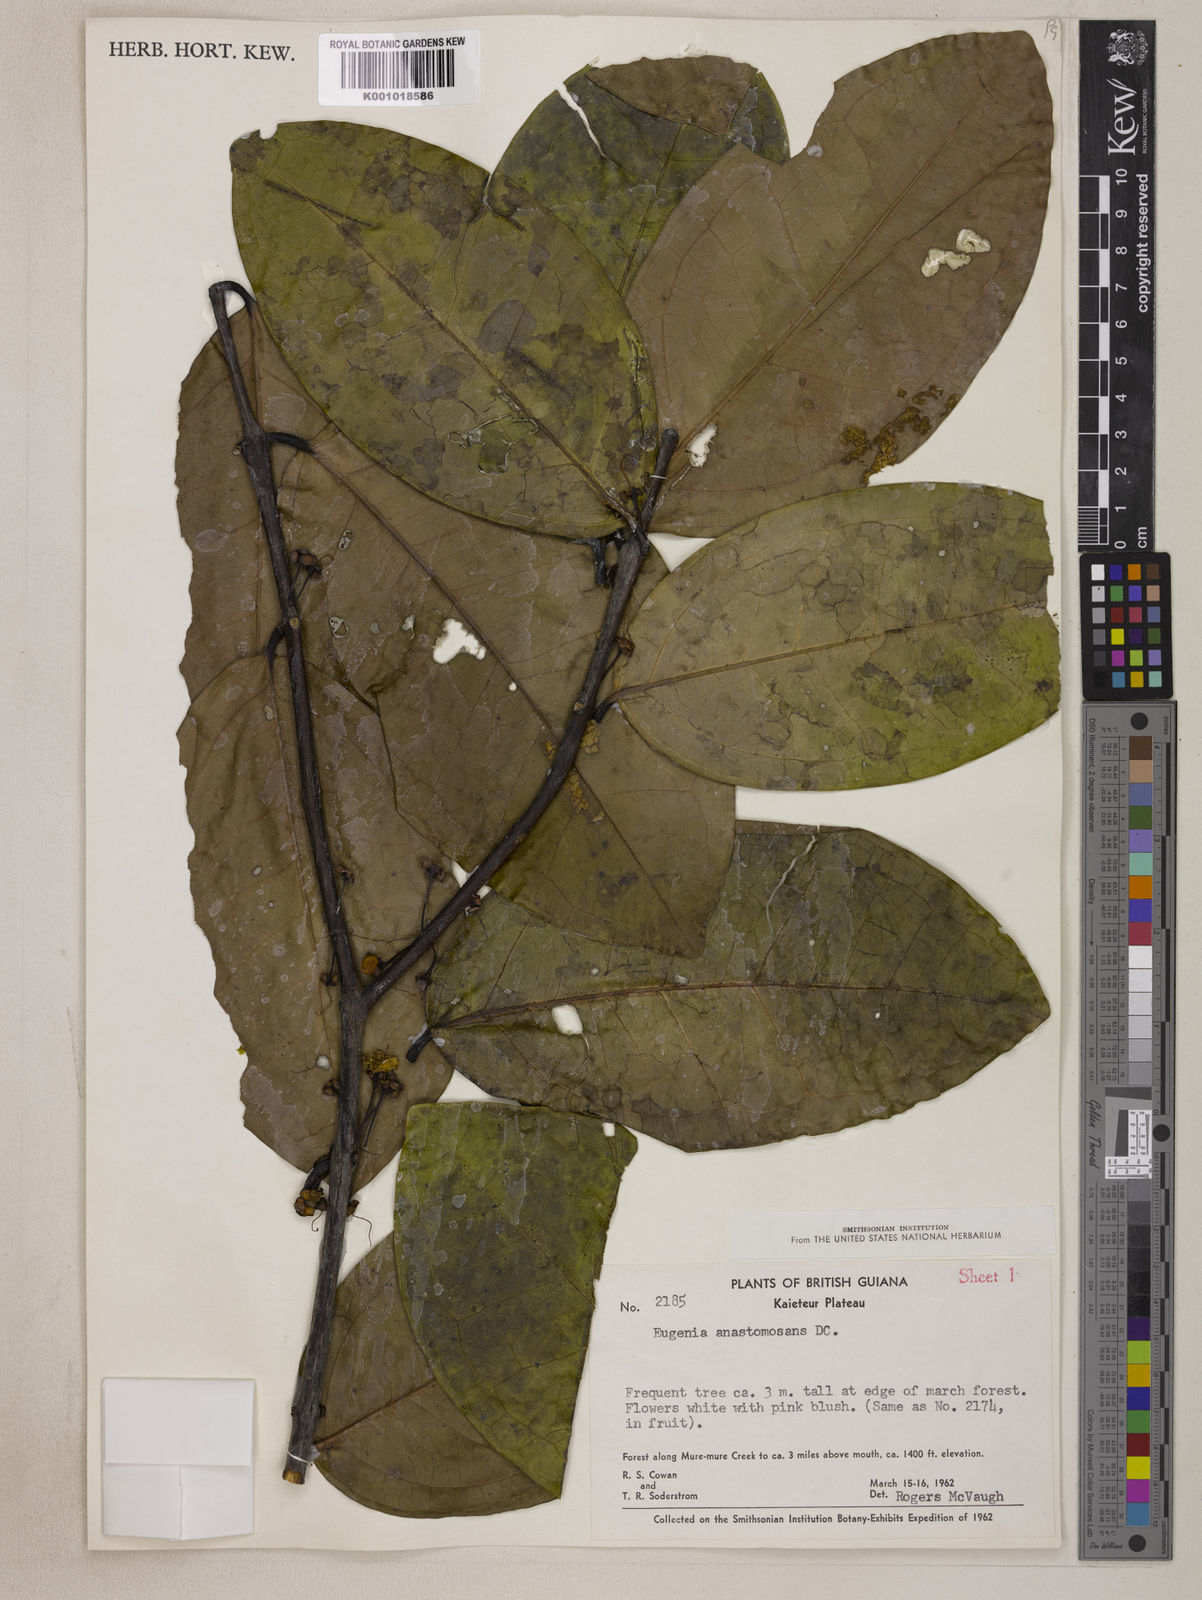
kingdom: Plantae
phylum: Tracheophyta
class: Magnoliopsida
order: Myrtales
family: Myrtaceae
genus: Eugenia
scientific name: Eugenia anastomosans
